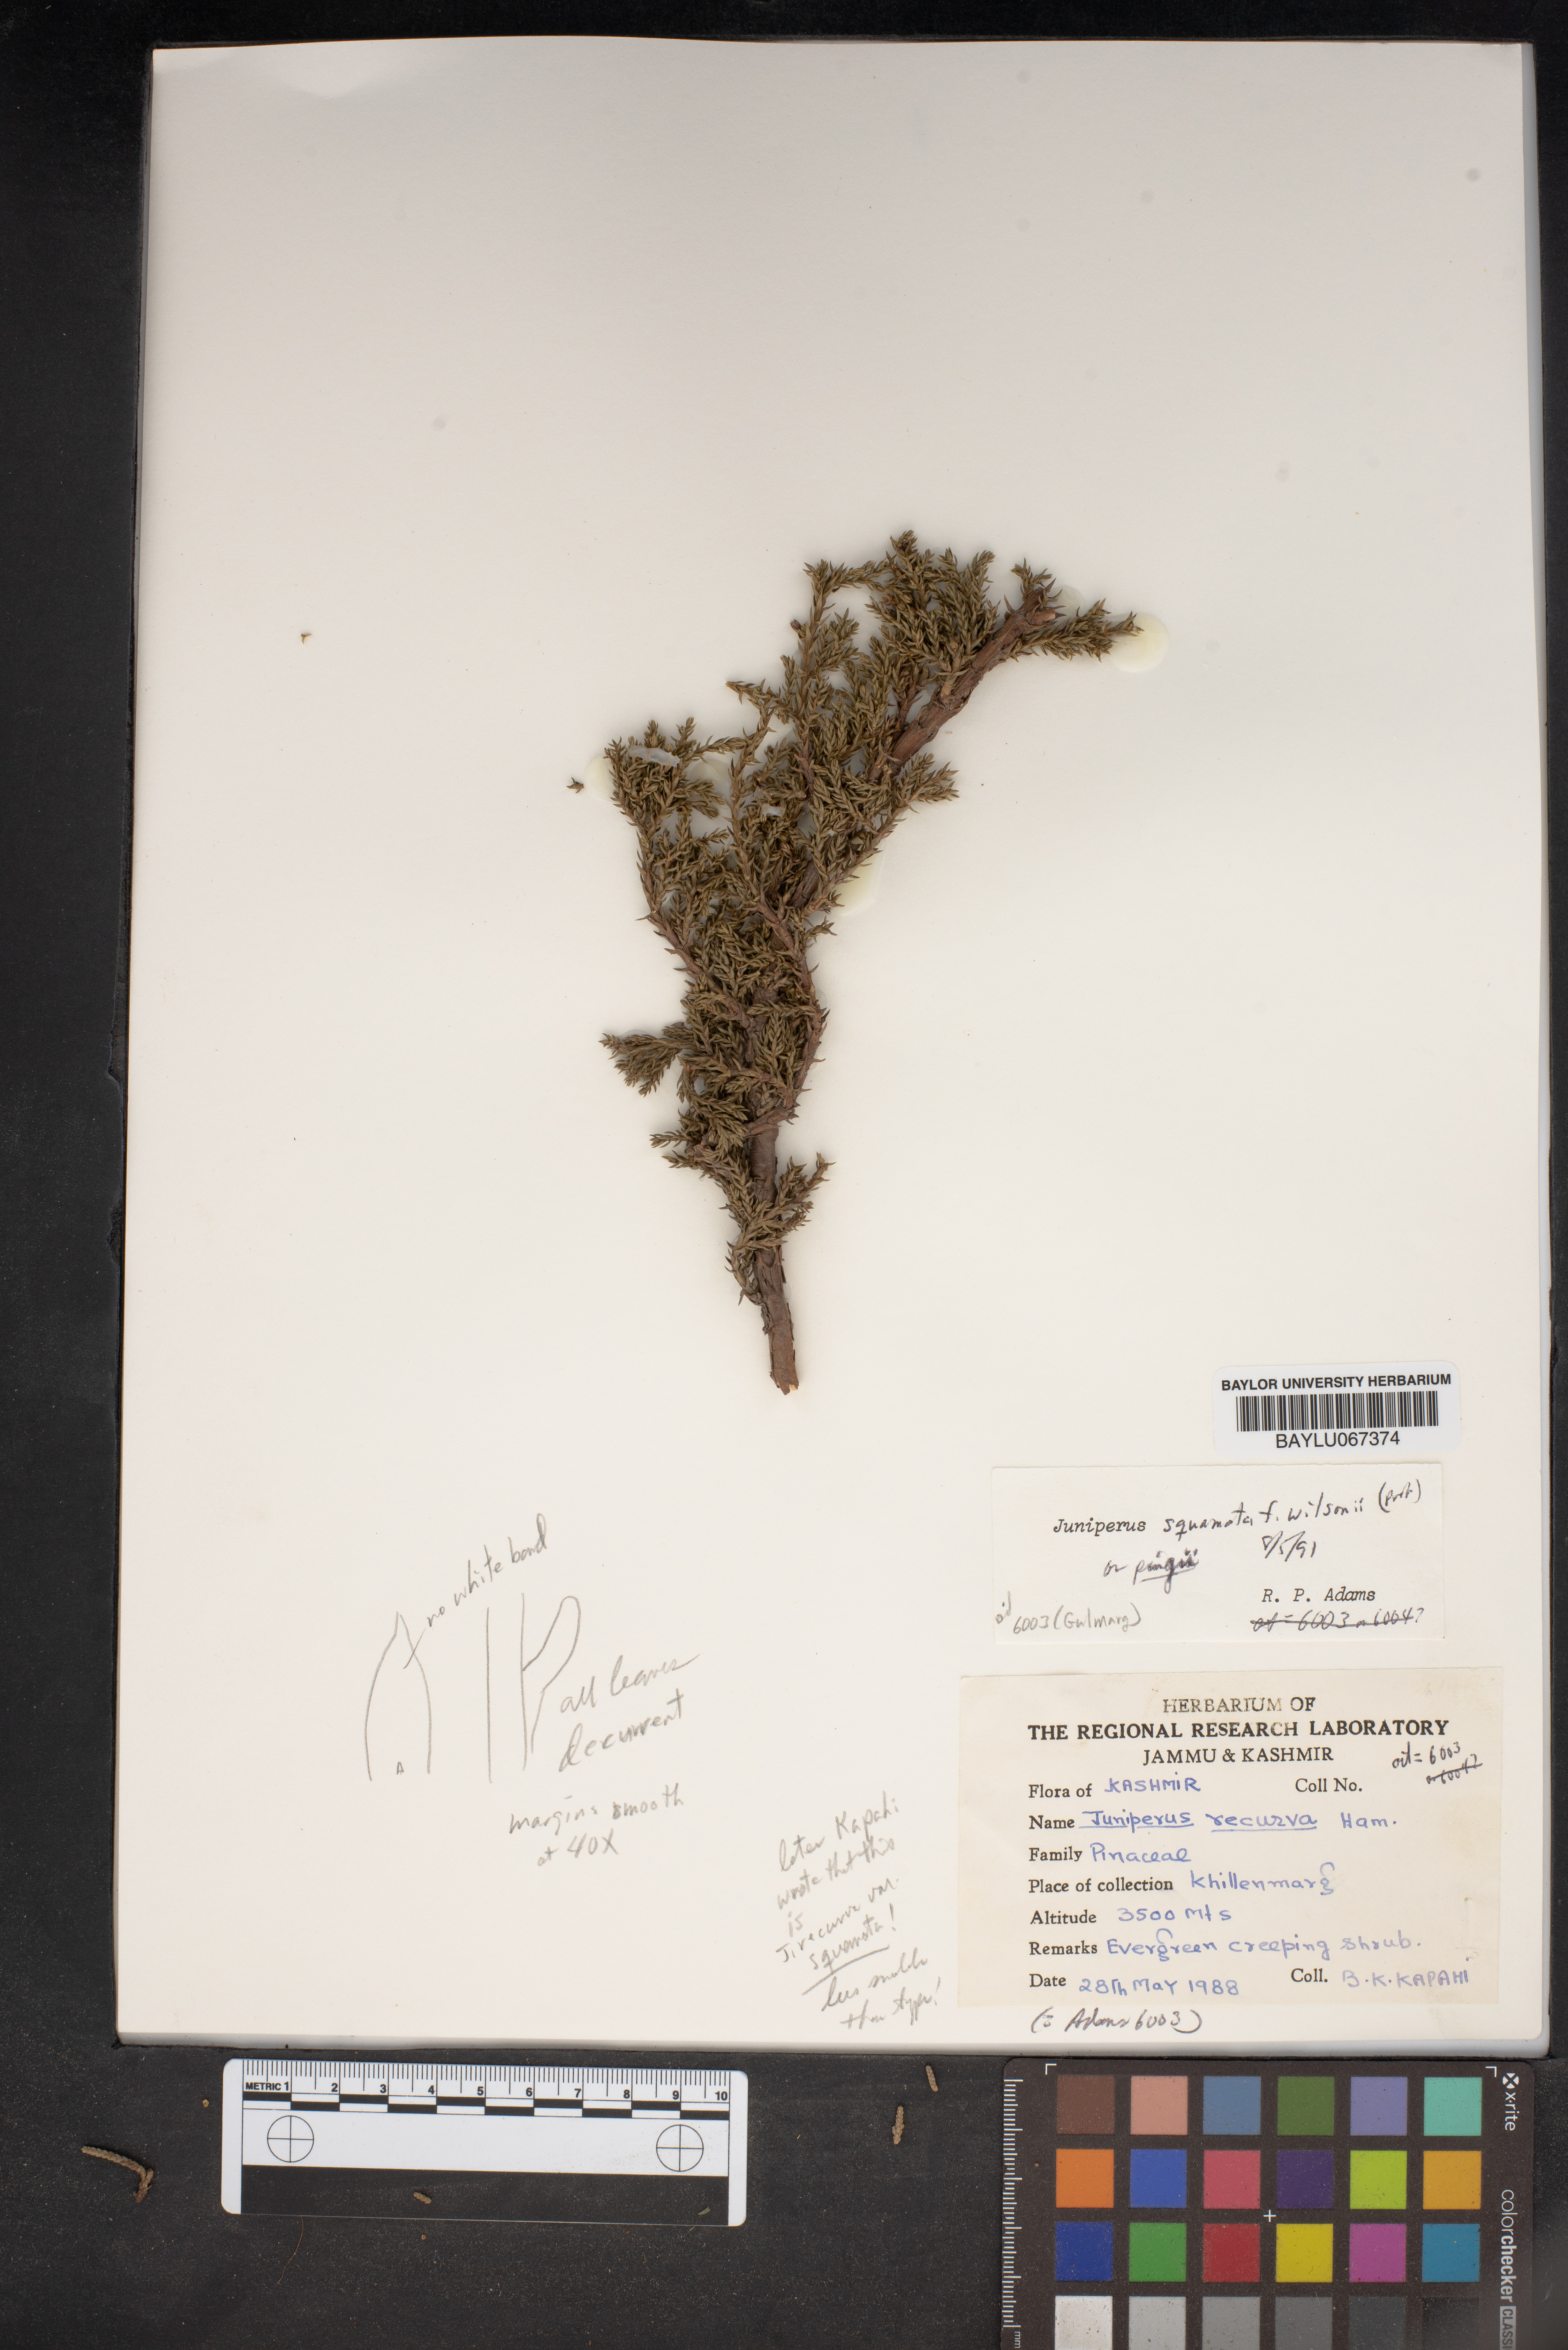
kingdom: Plantae
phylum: Tracheophyta
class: Pinopsida
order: Pinales
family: Cupressaceae
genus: Juniperus
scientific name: Juniperus recurva
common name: Drooping juniper
